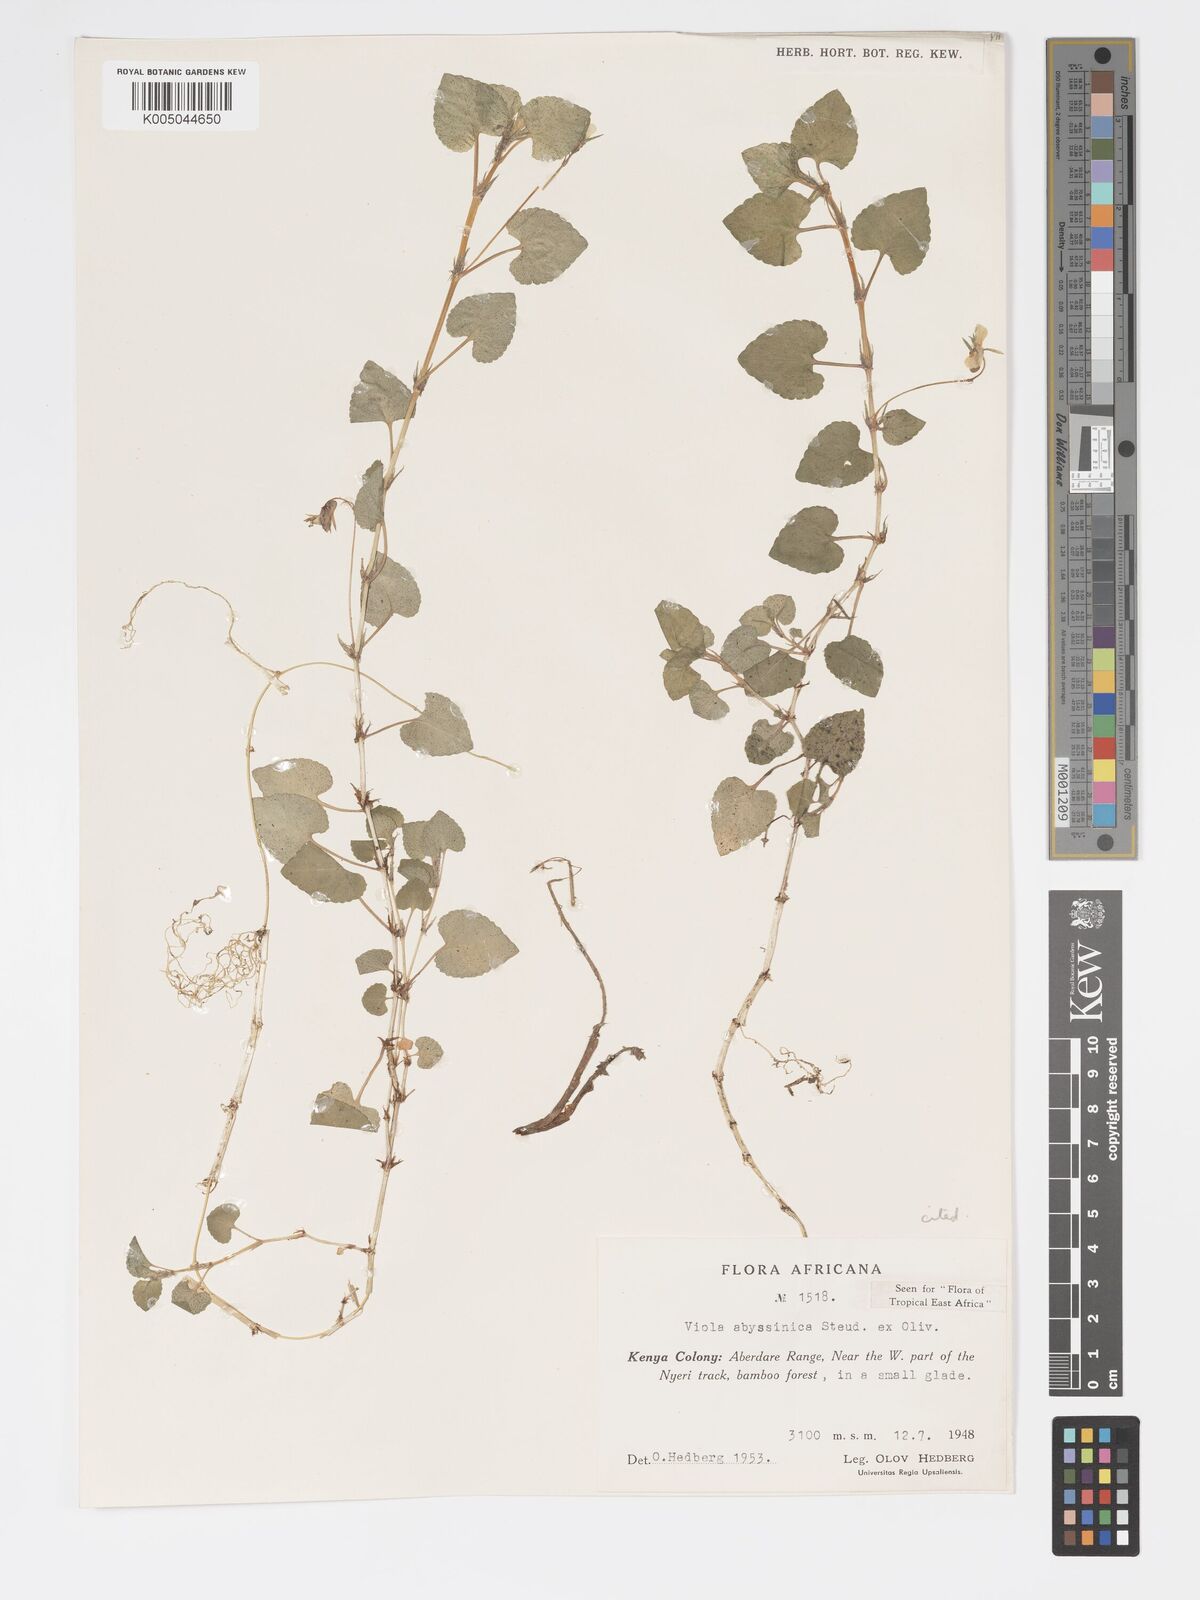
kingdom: Plantae
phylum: Tracheophyta
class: Magnoliopsida
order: Malpighiales
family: Violaceae
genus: Viola
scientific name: Viola abyssinica
